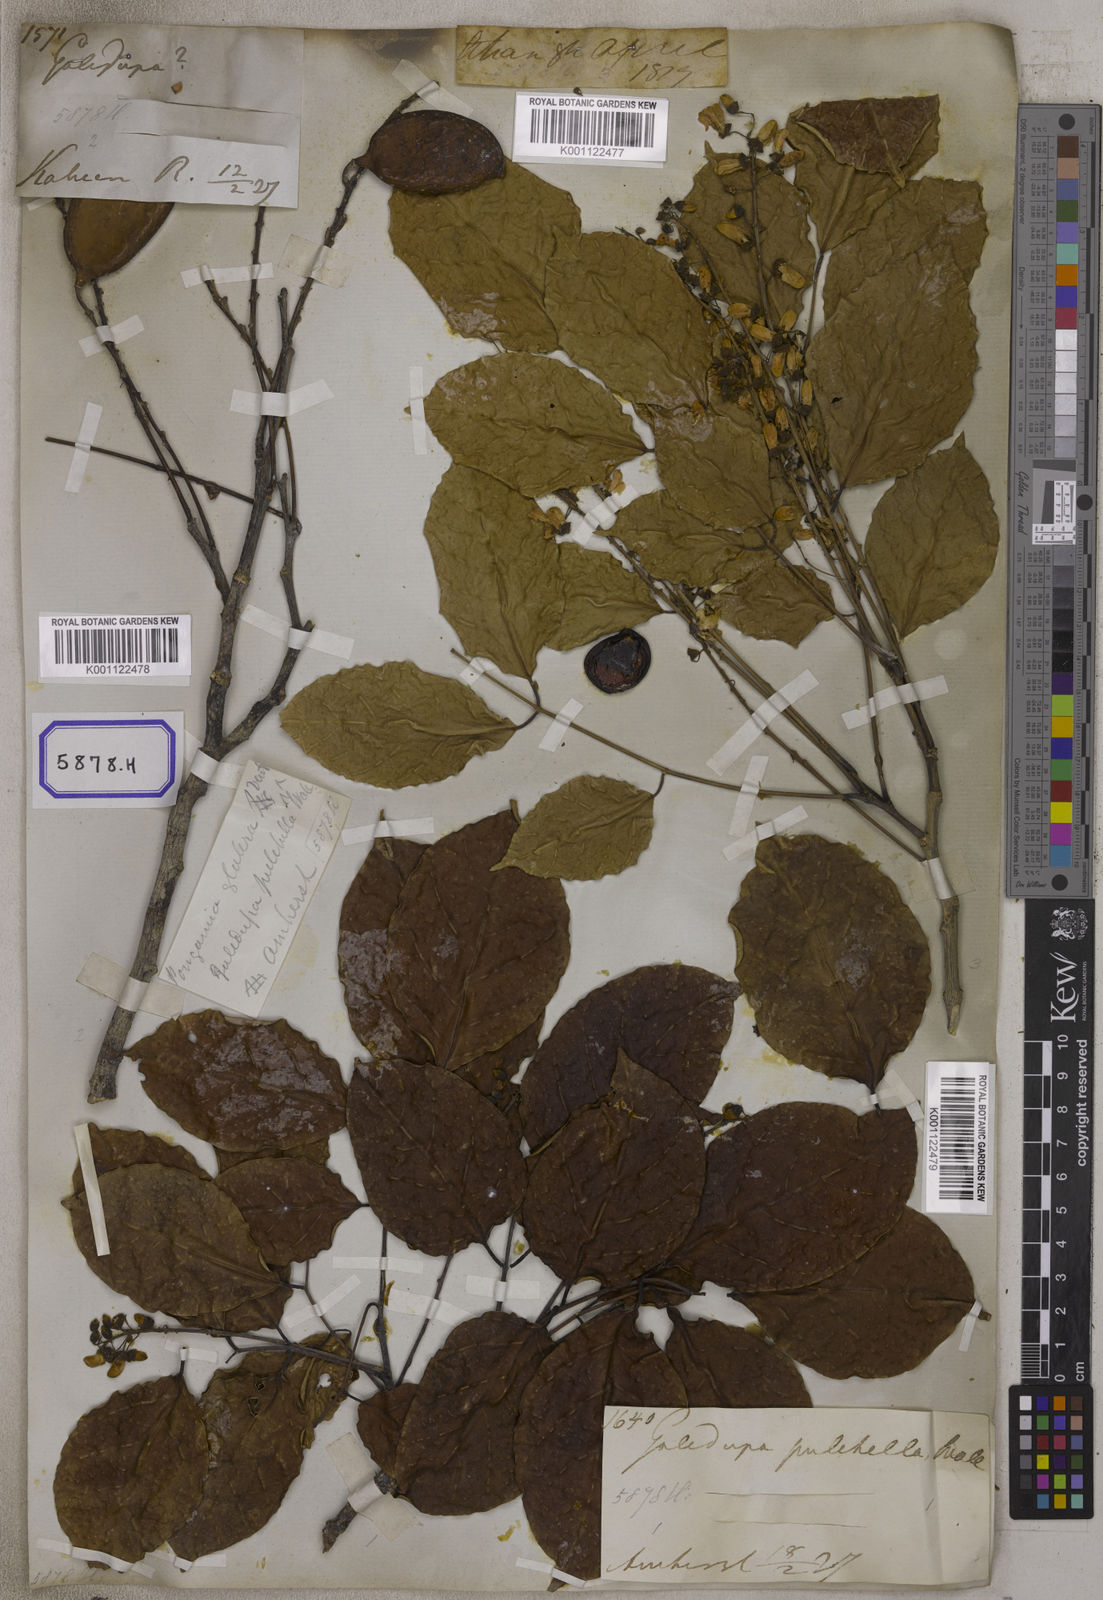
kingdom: Plantae
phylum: Tracheophyta
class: Magnoliopsida
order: Fabales
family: Fabaceae
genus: Pongamia
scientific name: Pongamia pinnata
